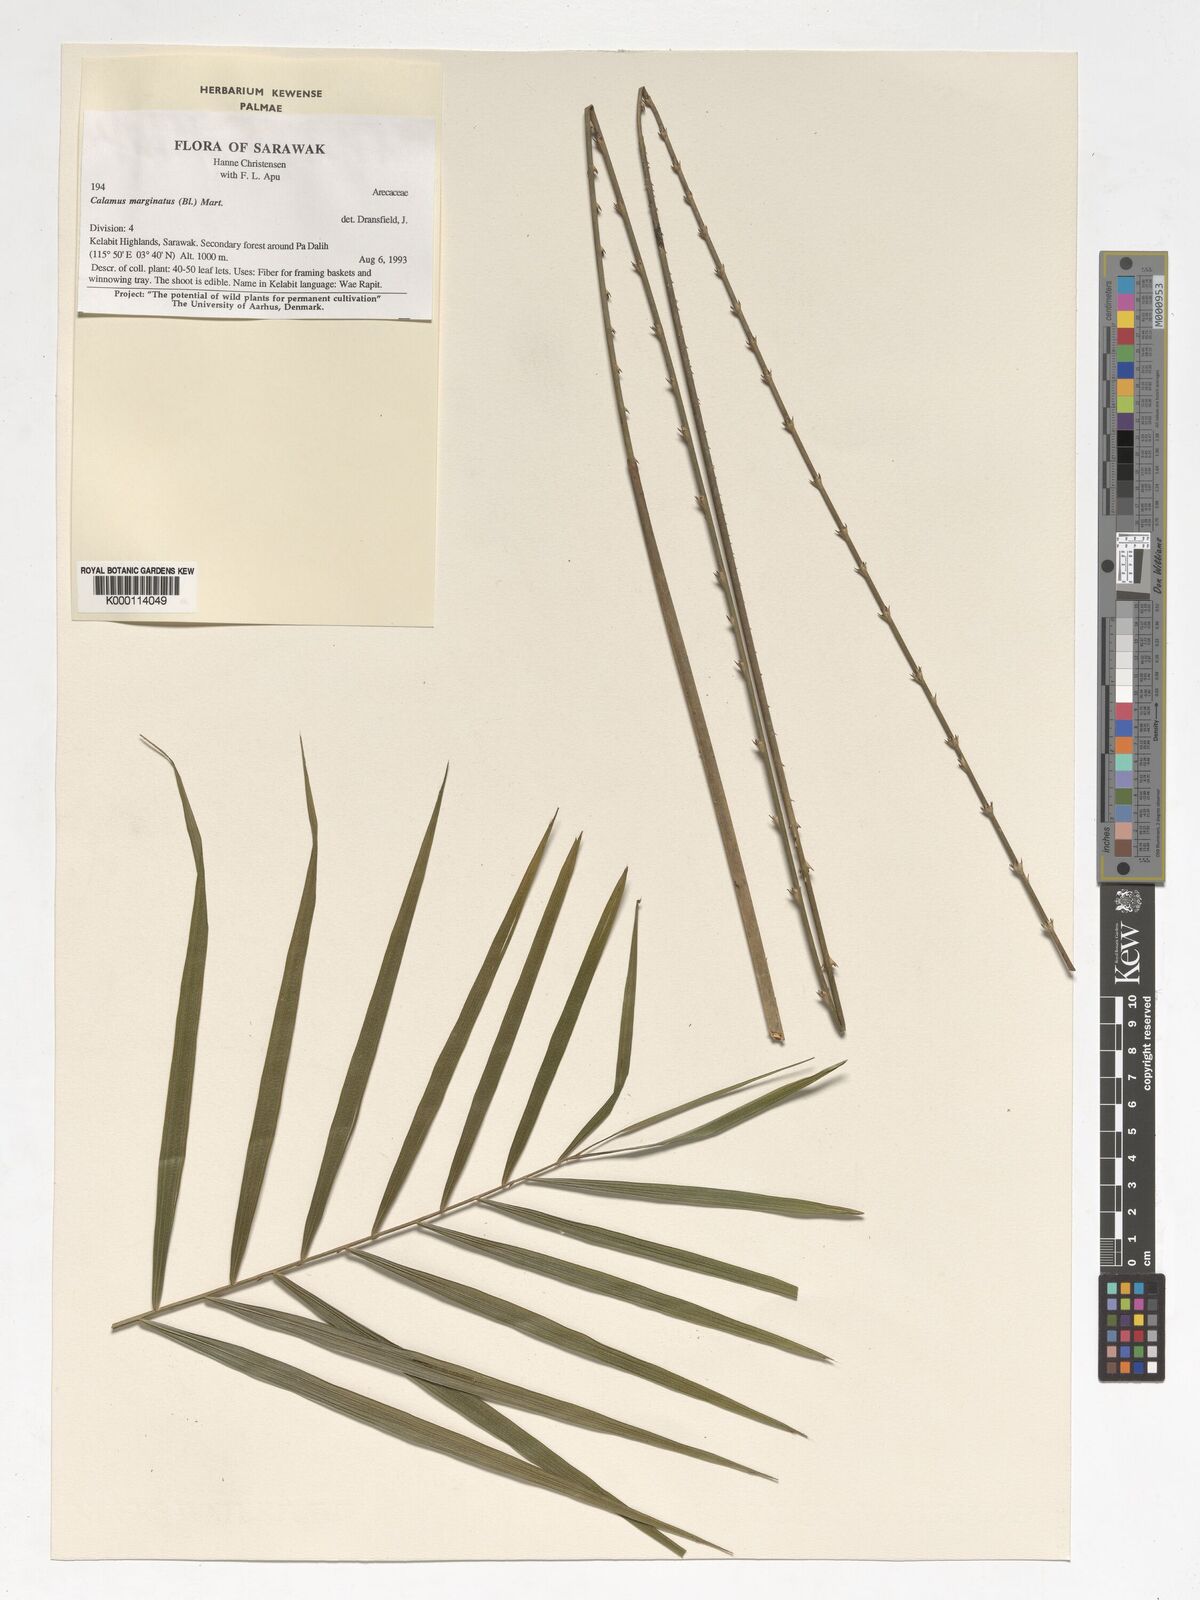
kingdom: Plantae
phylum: Tracheophyta
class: Liliopsida
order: Arecales
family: Arecaceae
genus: Calamus
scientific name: Calamus
